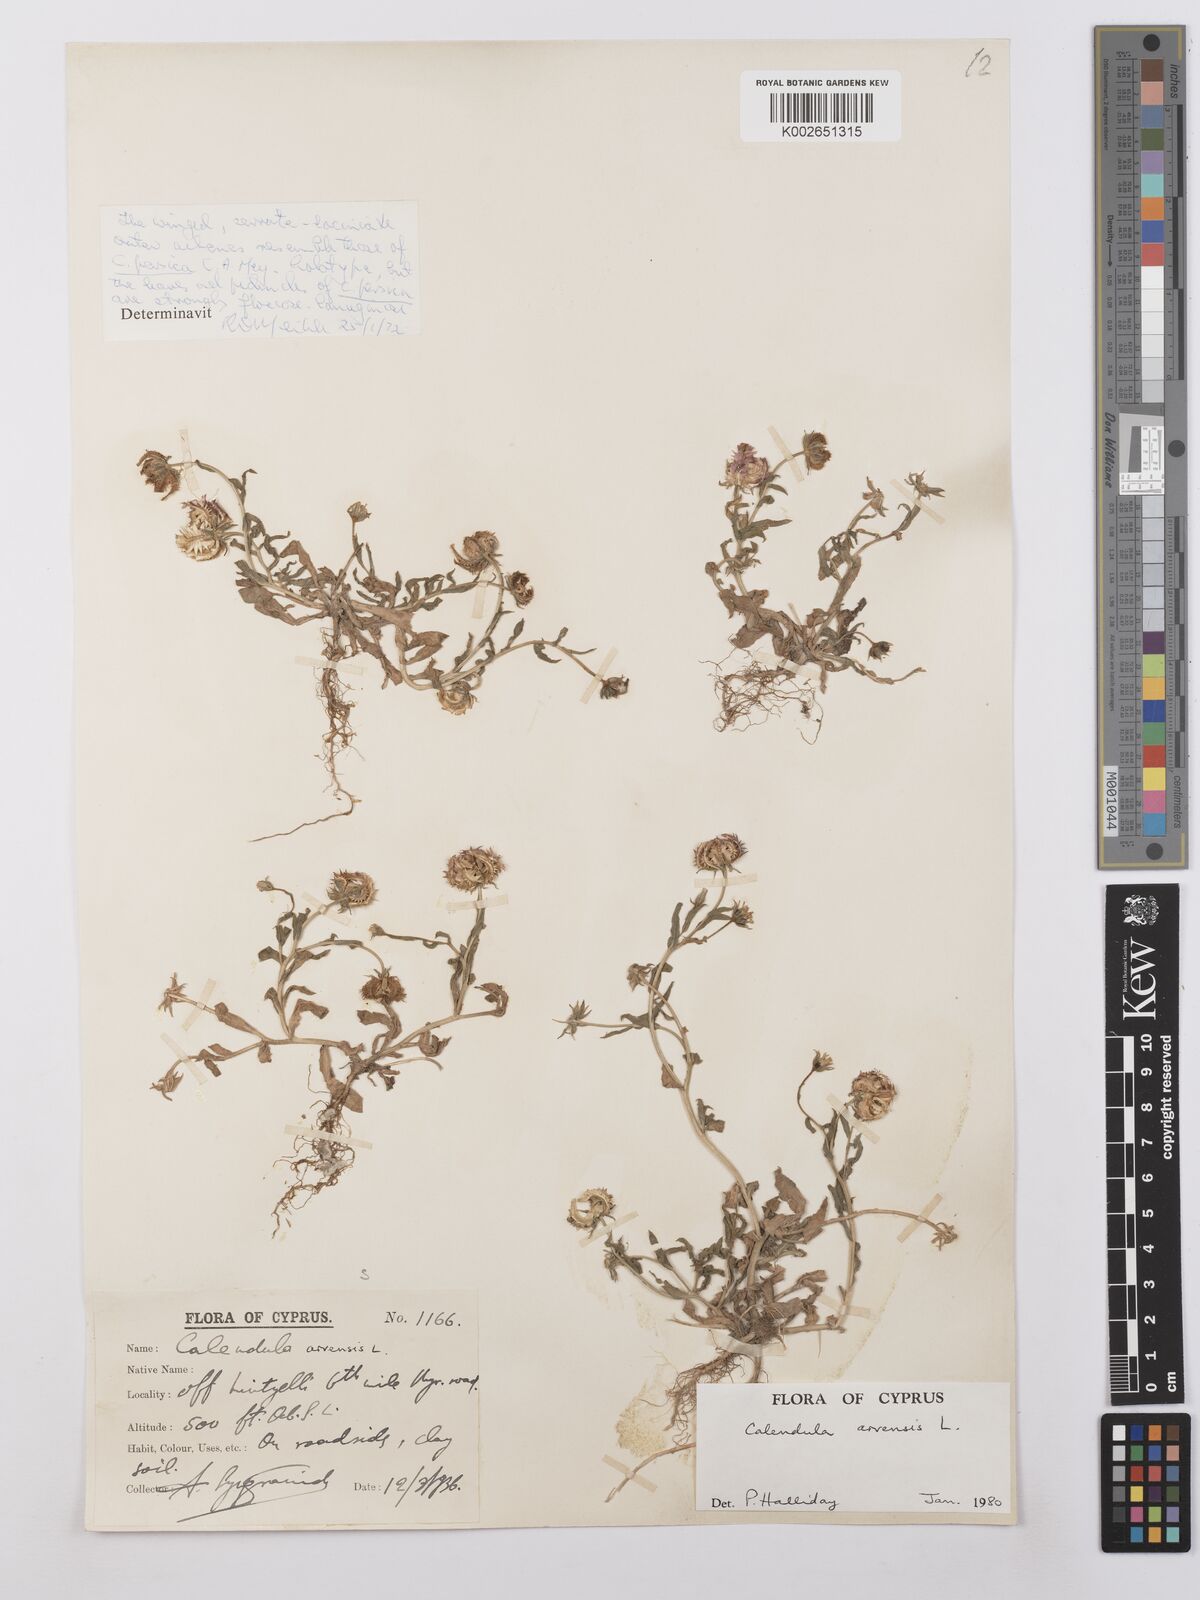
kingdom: Plantae
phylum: Tracheophyta
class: Magnoliopsida
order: Asterales
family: Asteraceae
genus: Calendula
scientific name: Calendula arvensis
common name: Field marigold
